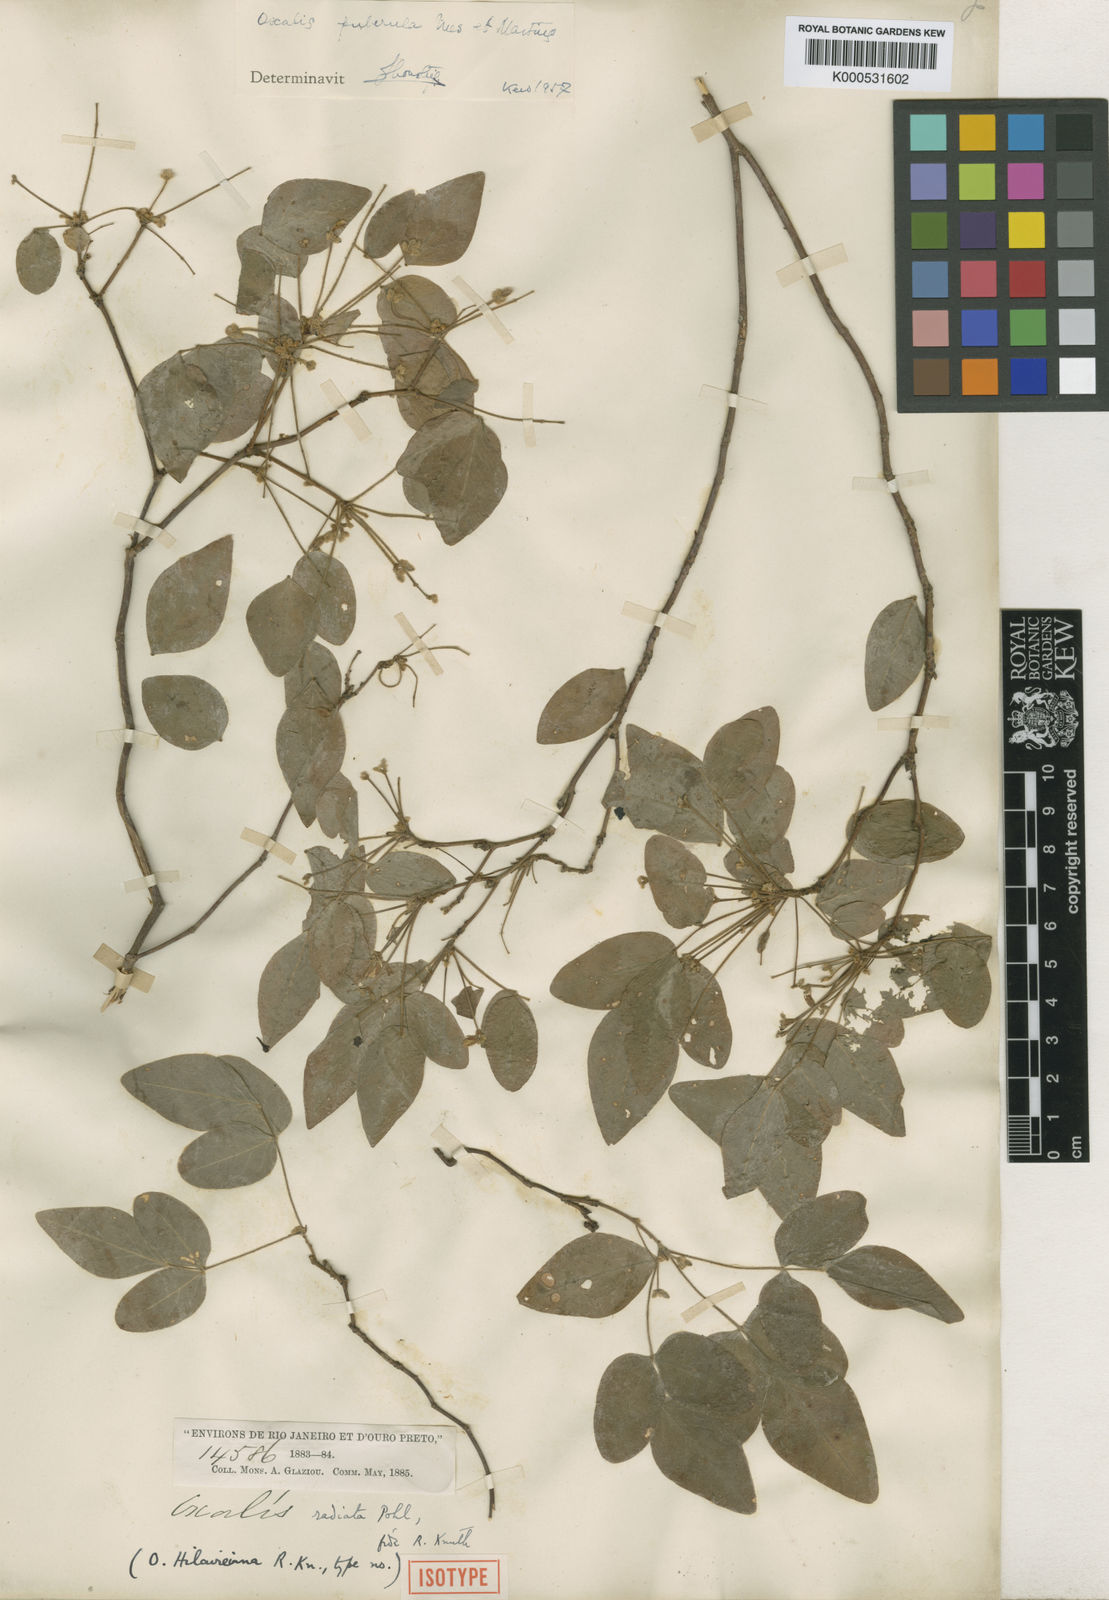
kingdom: Plantae
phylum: Tracheophyta
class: Magnoliopsida
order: Oxalidales
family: Oxalidaceae
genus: Oxalis
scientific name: Oxalis puberula
